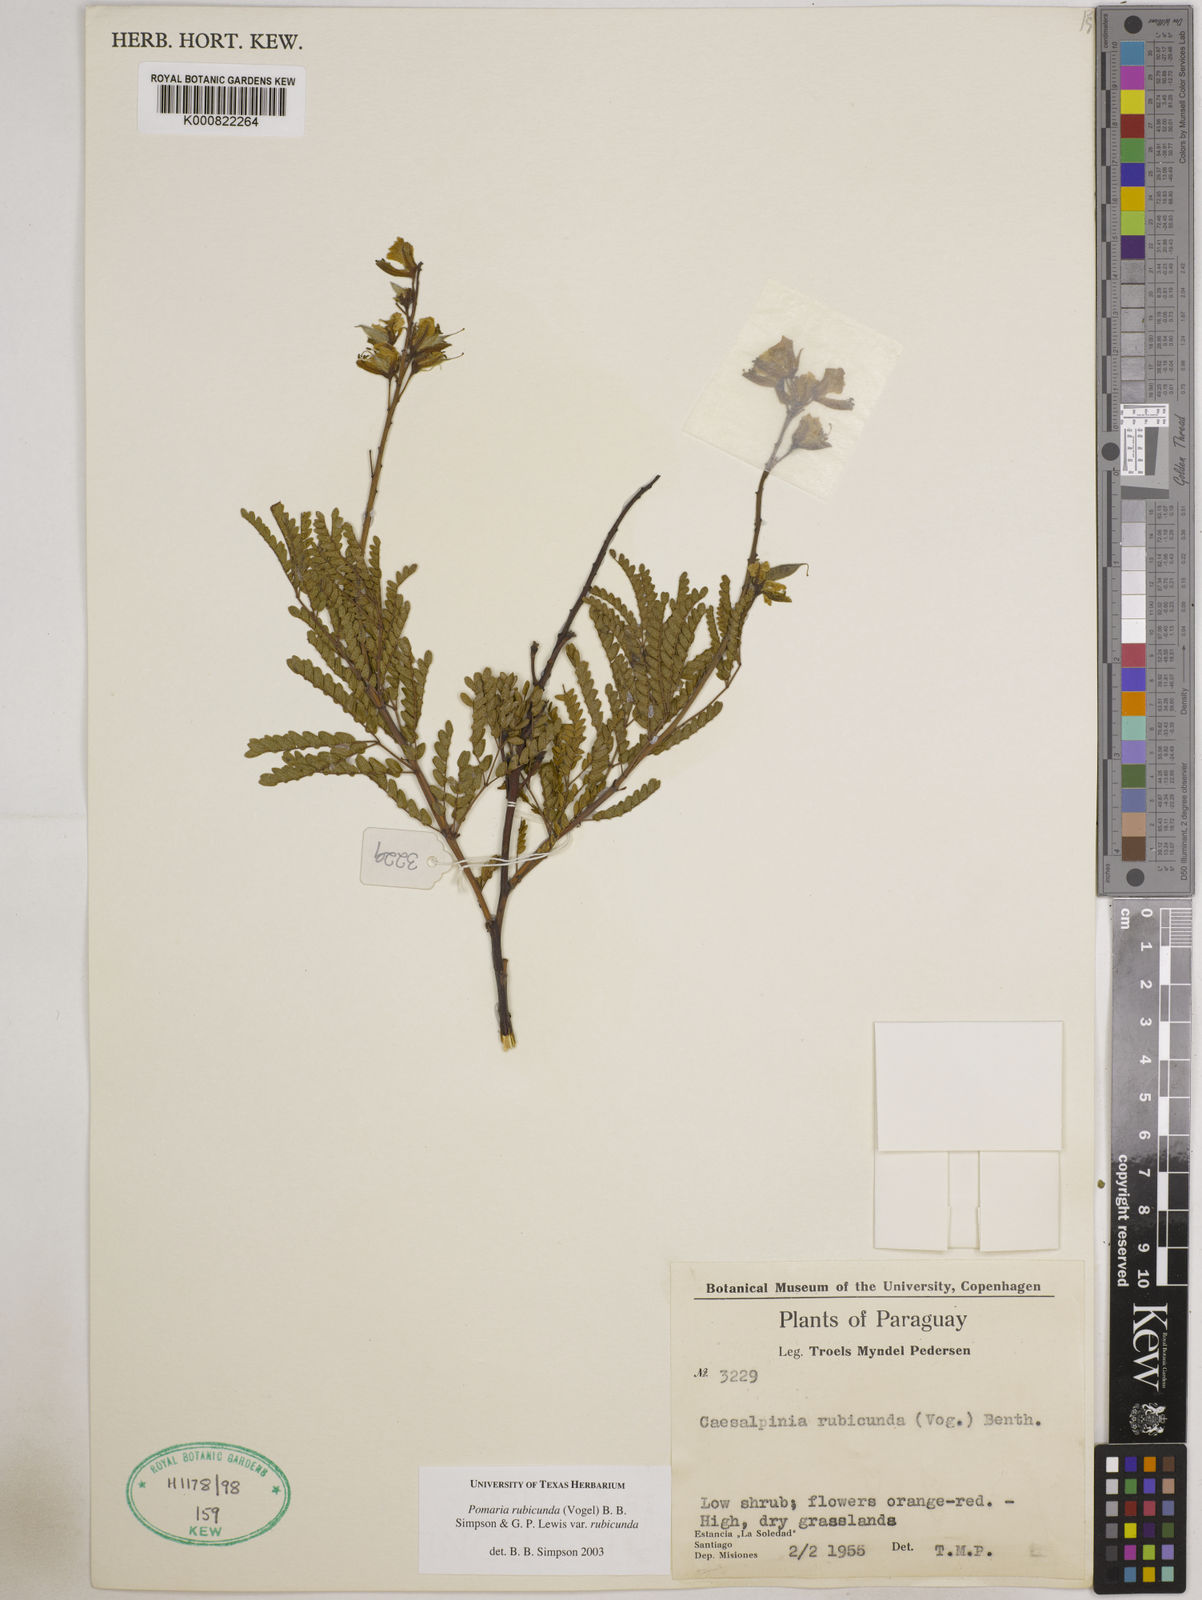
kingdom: Plantae
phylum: Tracheophyta
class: Magnoliopsida
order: Fabales
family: Fabaceae
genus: Pomaria
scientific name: Pomaria rubicunda
